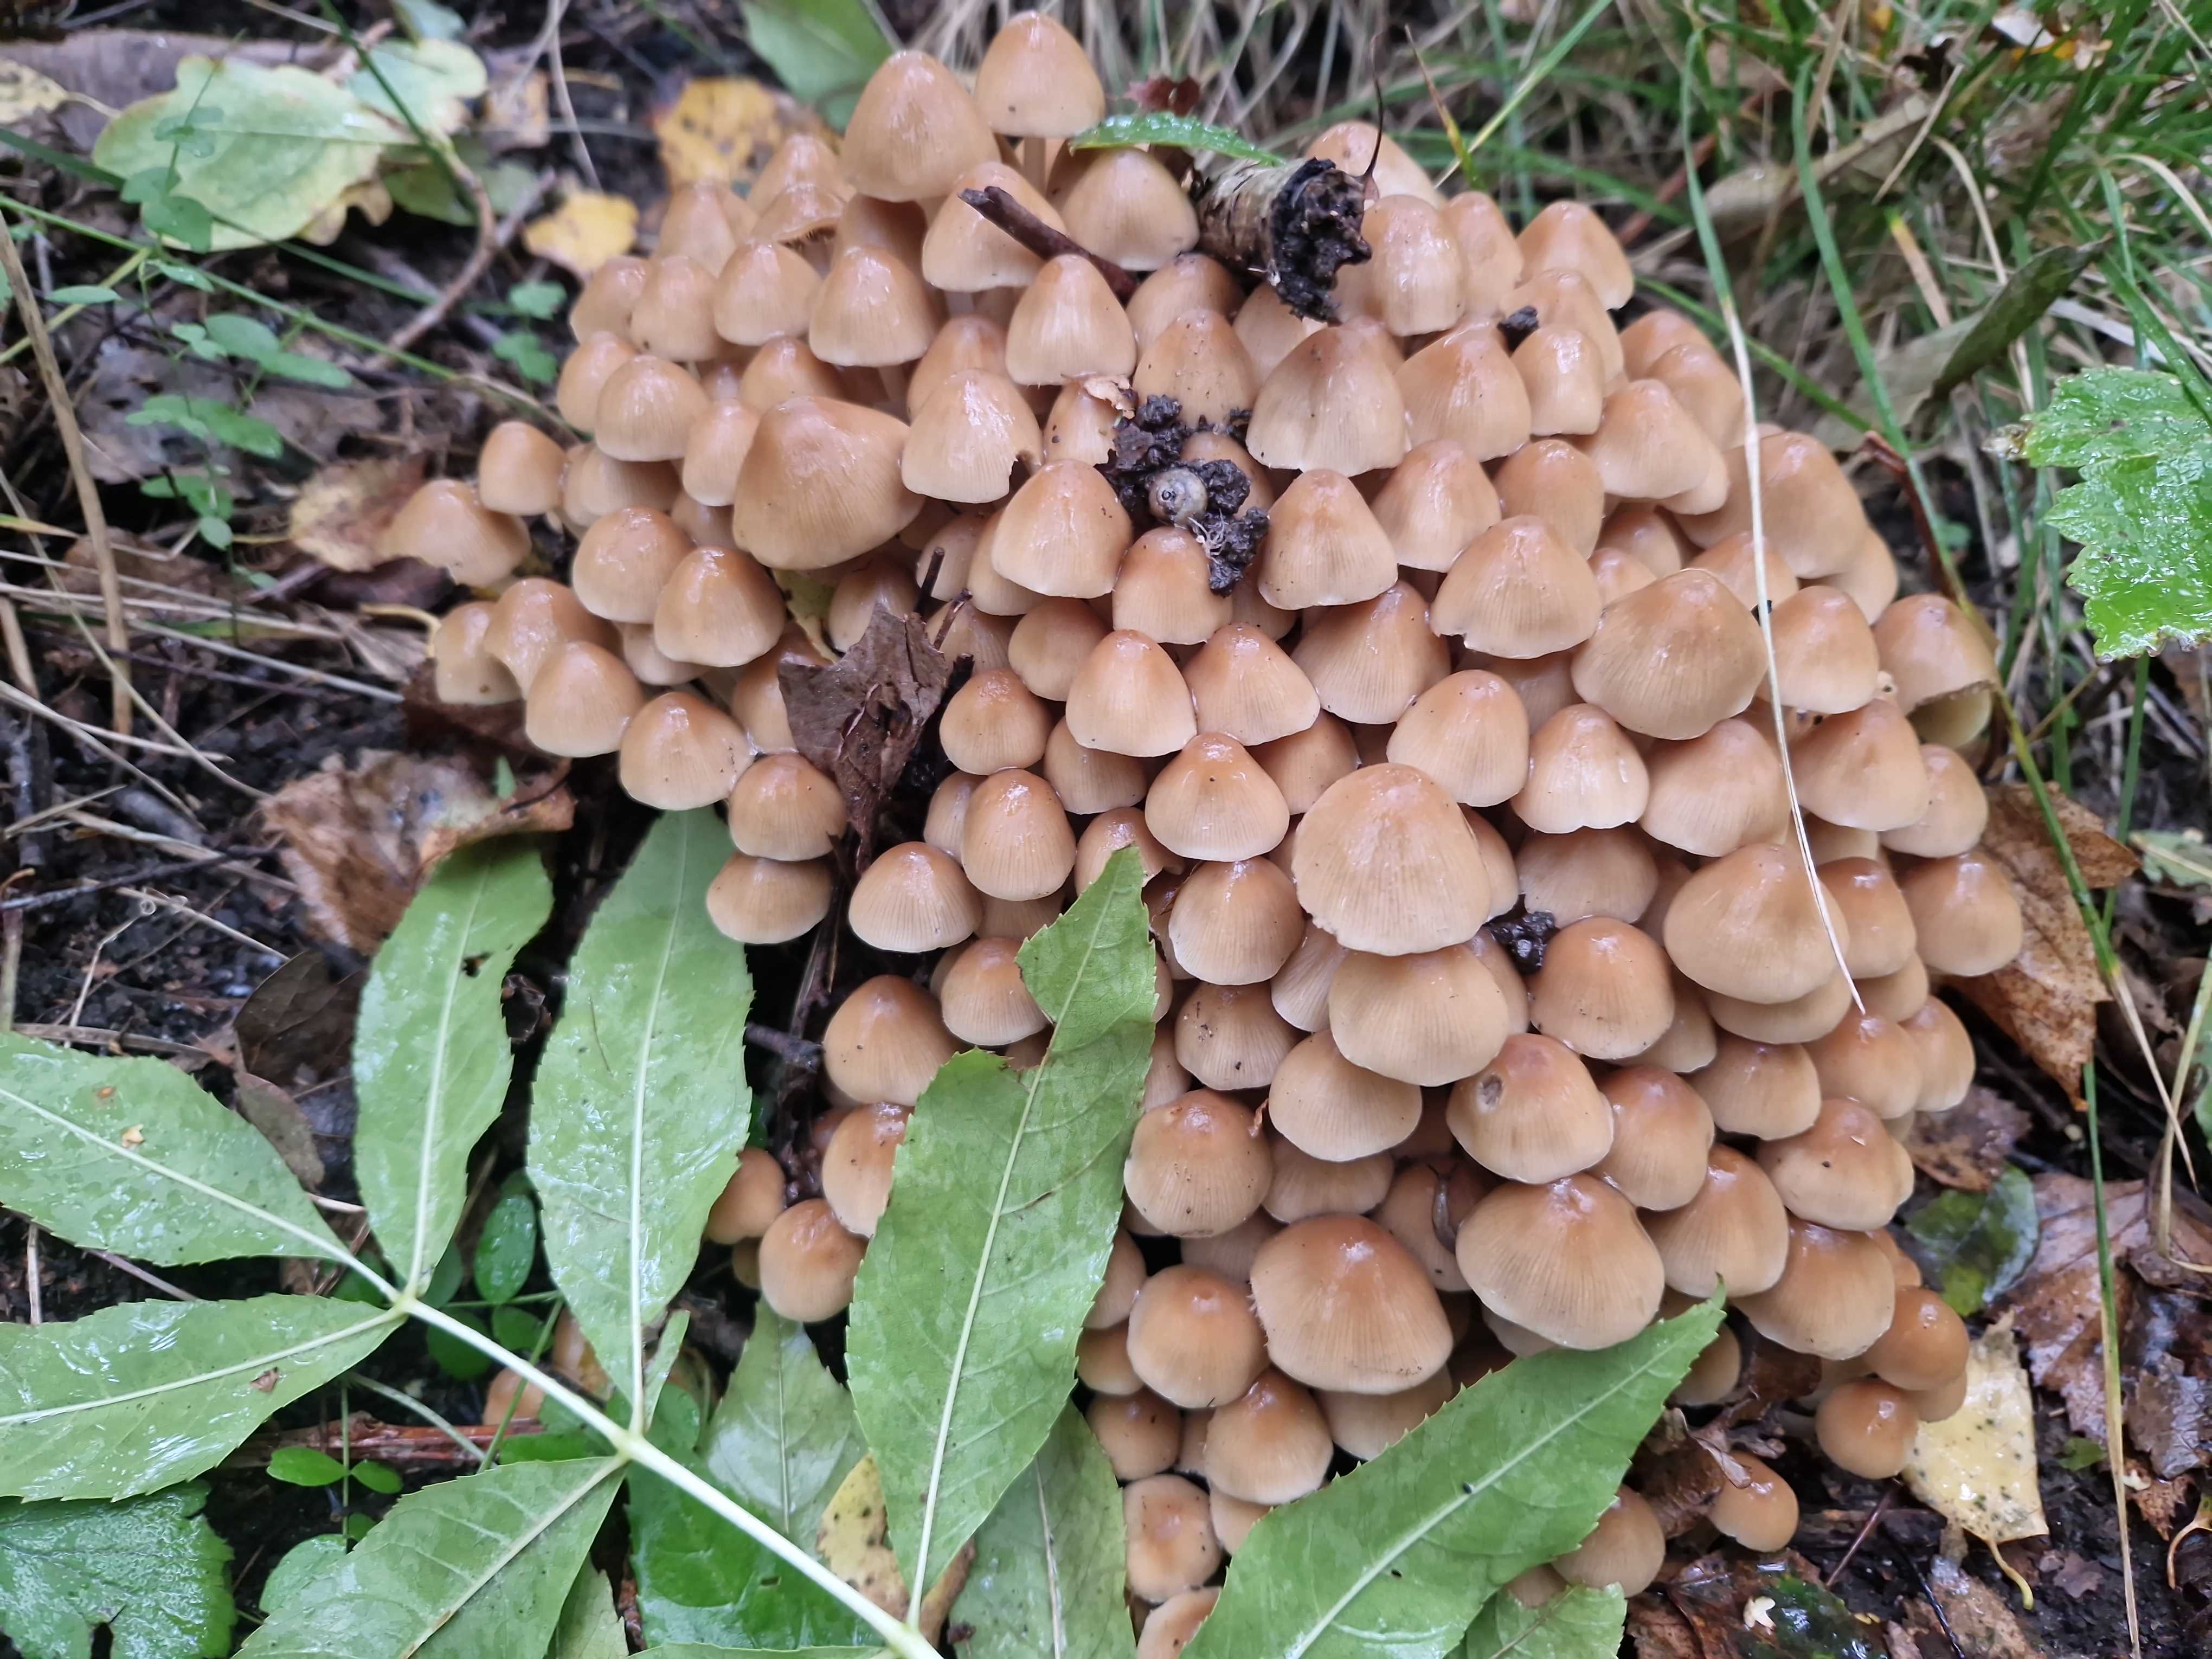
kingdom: Fungi
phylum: Basidiomycota
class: Agaricomycetes
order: Agaricales
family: Psathyrellaceae
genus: Britzelmayria
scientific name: Britzelmayria multipedata
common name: knippe-mørkhat
